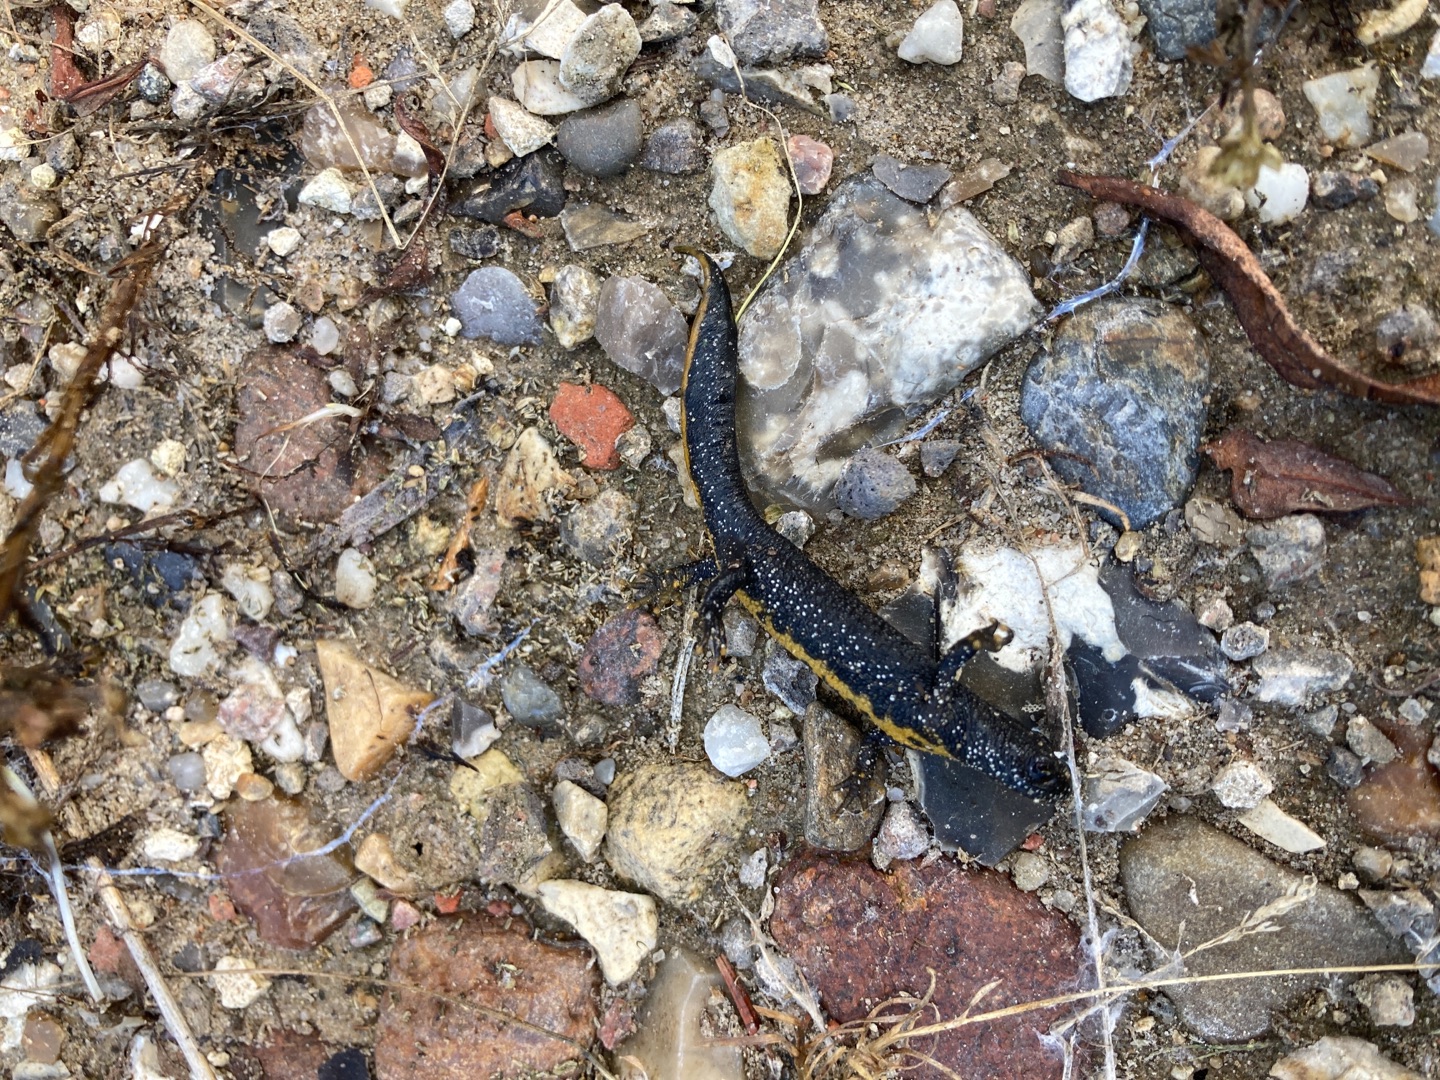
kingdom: Animalia
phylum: Chordata
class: Amphibia
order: Caudata
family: Salamandridae
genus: Triturus
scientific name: Triturus cristatus
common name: Stor vandsalamander
